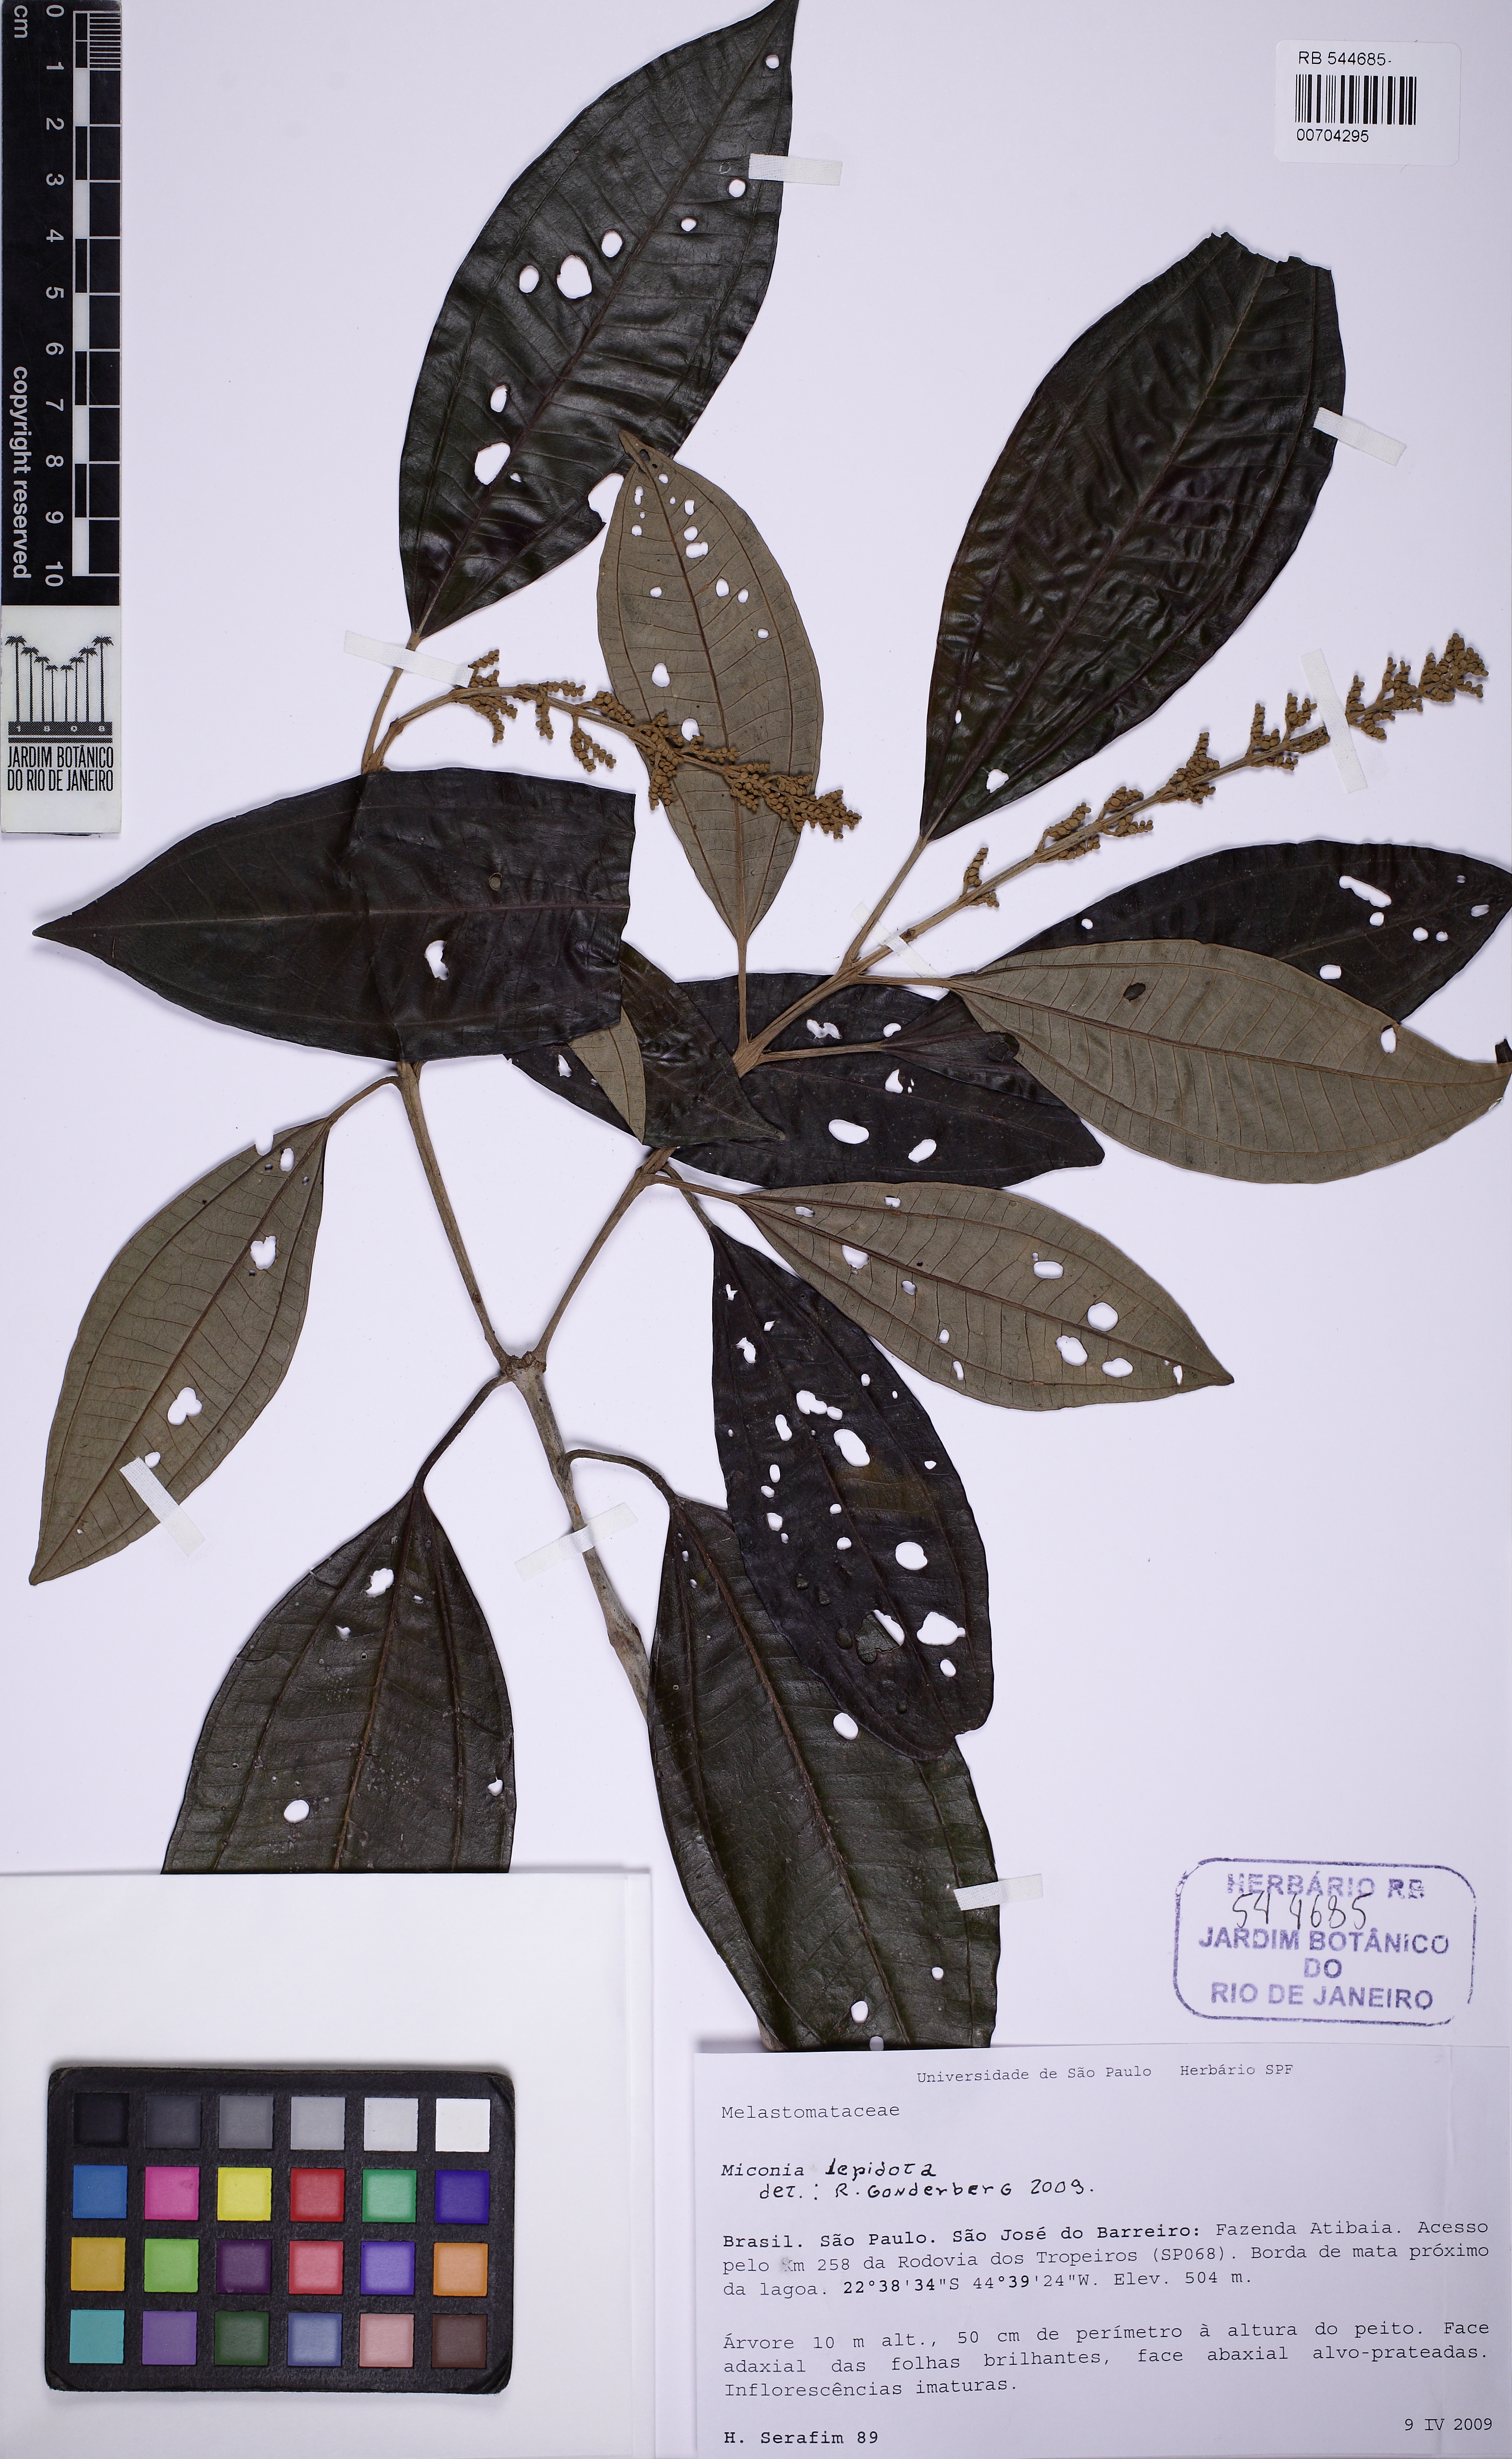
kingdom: Plantae
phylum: Tracheophyta
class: Magnoliopsida
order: Myrtales
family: Melastomataceae
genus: Miconia
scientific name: Miconia lepidota
